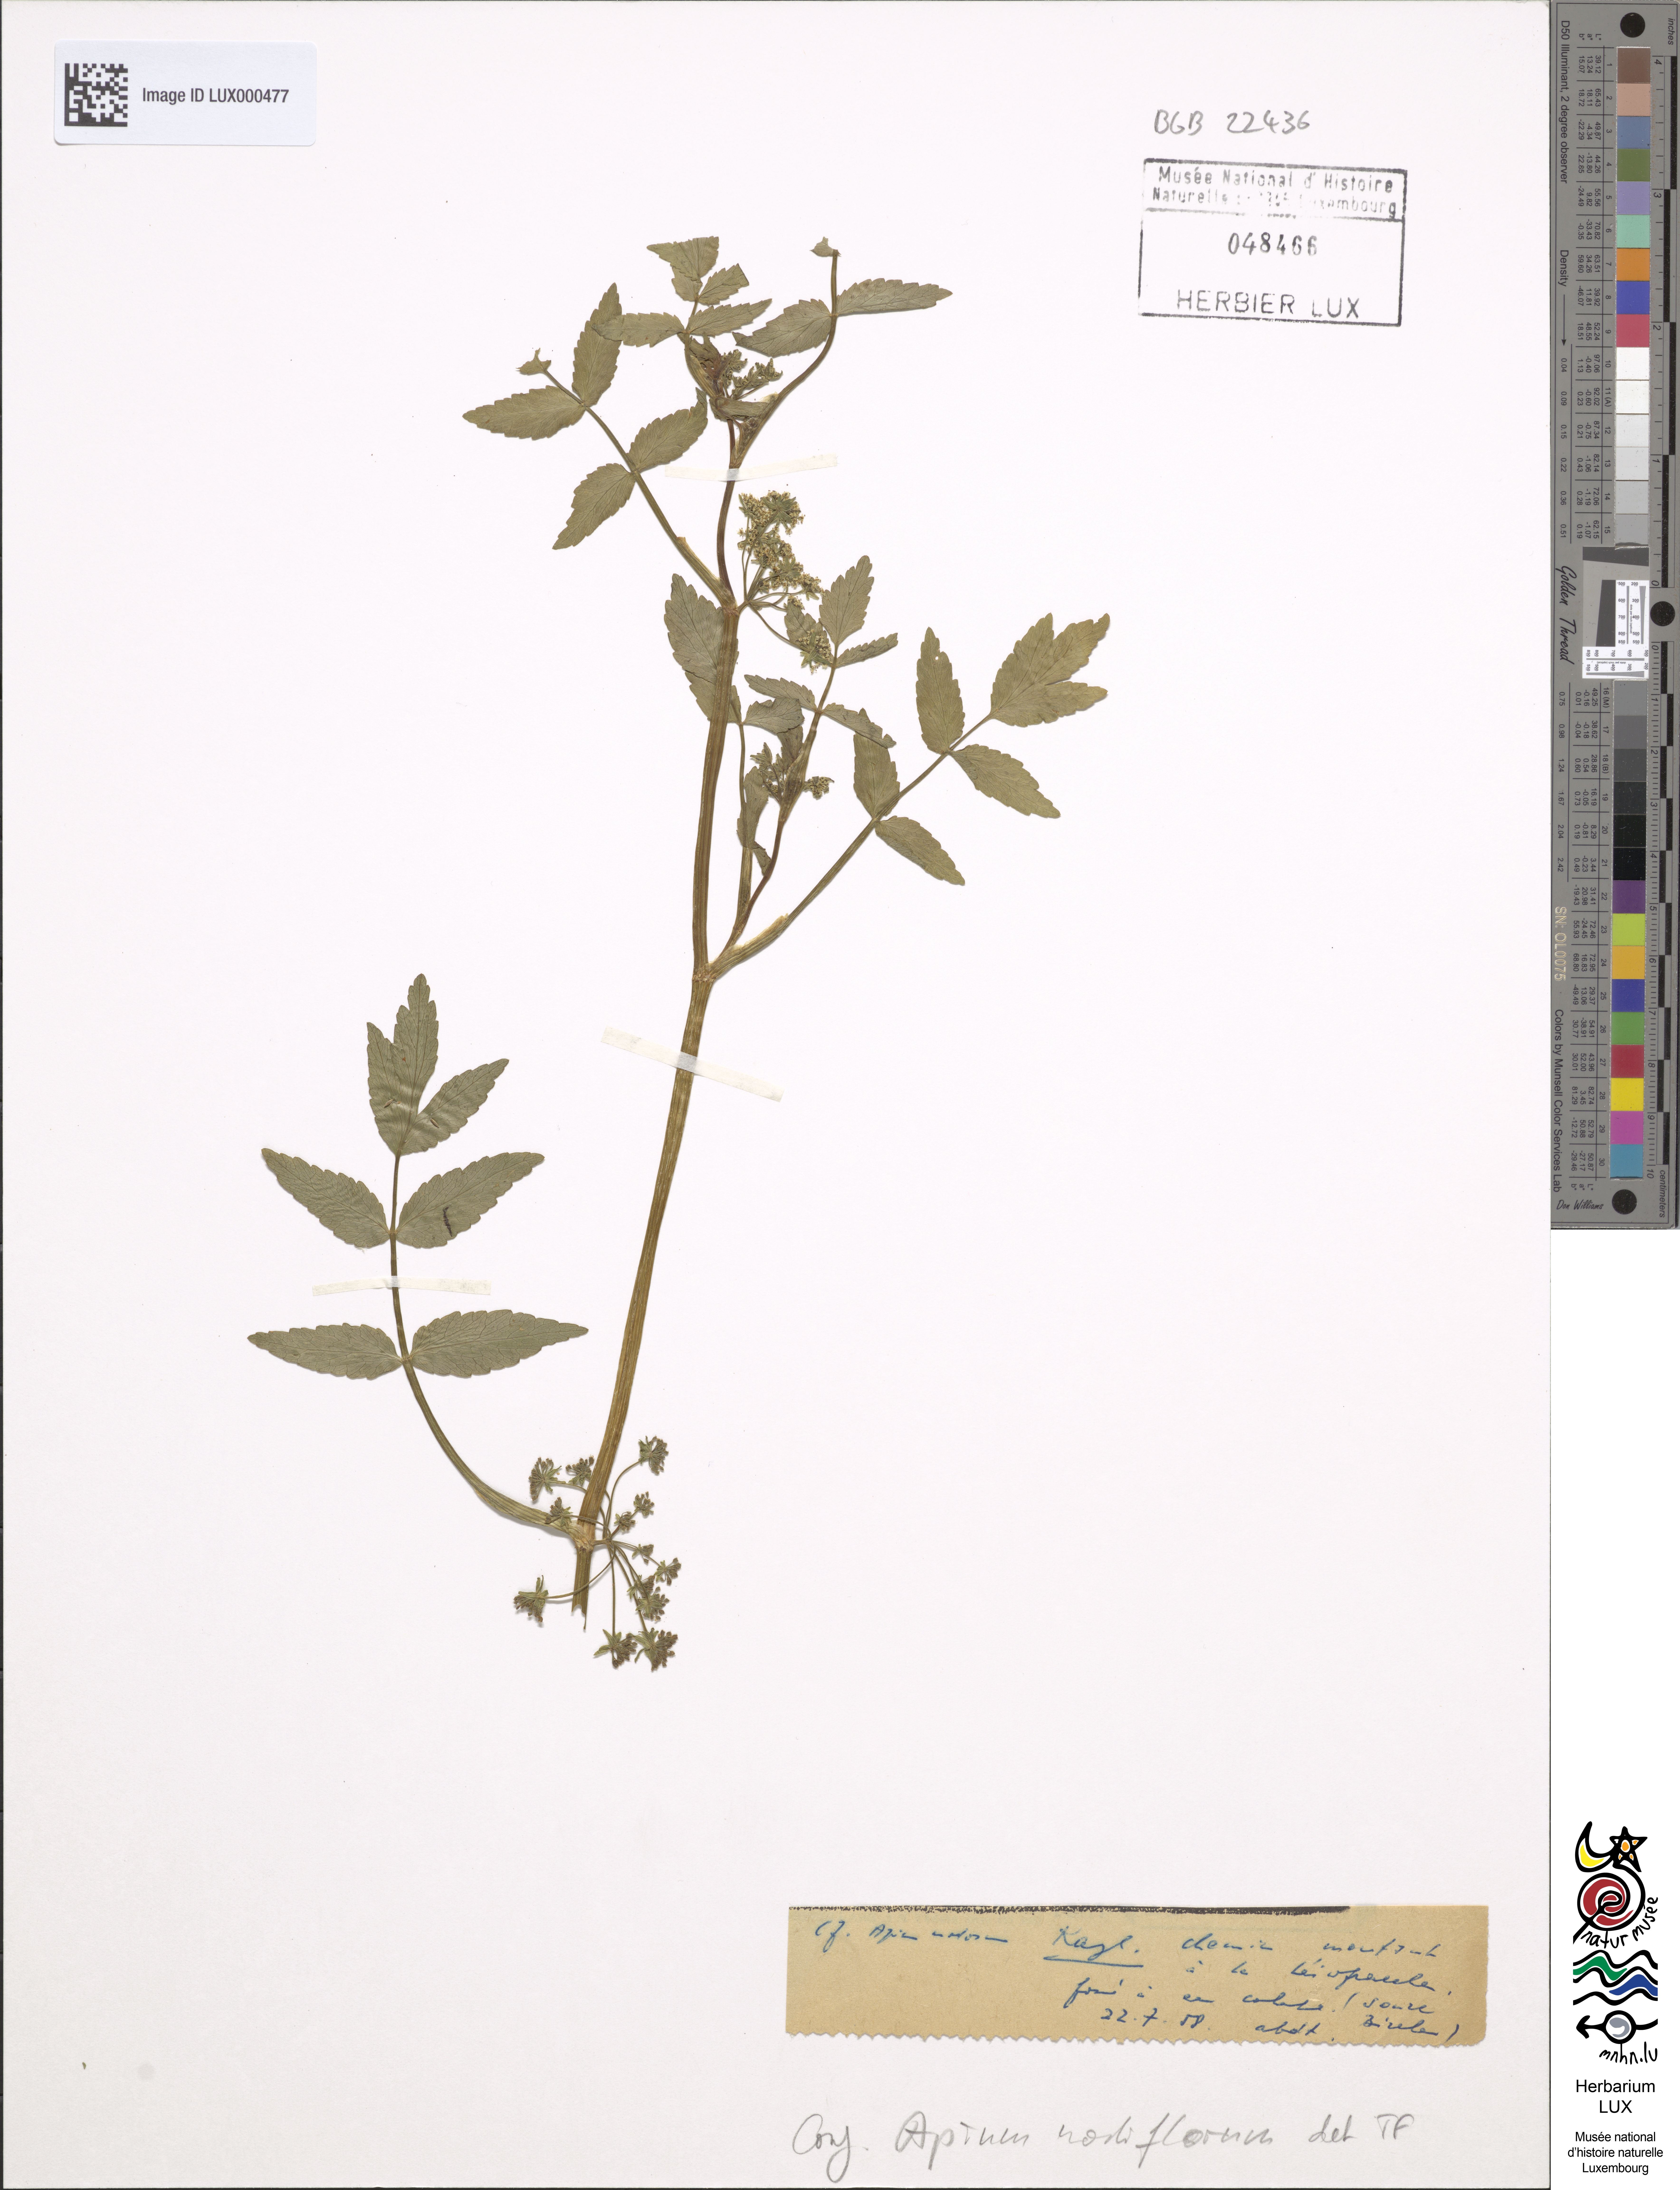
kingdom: Plantae
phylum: Tracheophyta
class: Magnoliopsida
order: Apiales
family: Apiaceae
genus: Helosciadium
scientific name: Helosciadium nodiflorum
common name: Fool's-watercress
